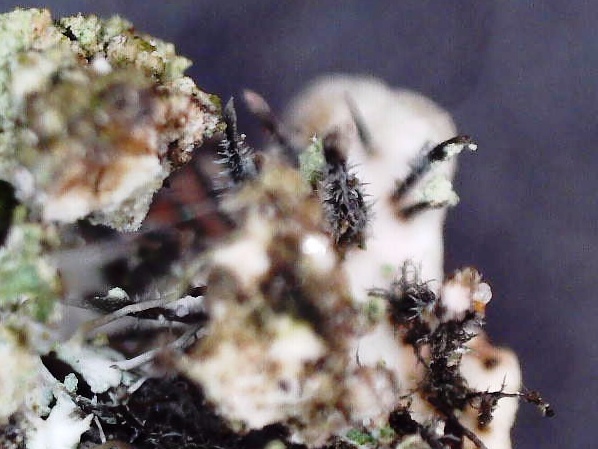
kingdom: Fungi
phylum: Ascomycota
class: Lecanoromycetes
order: Caliciales
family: Physciaceae
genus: Physconia
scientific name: Physconia enteroxantha
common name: grynet dugrosetlav
